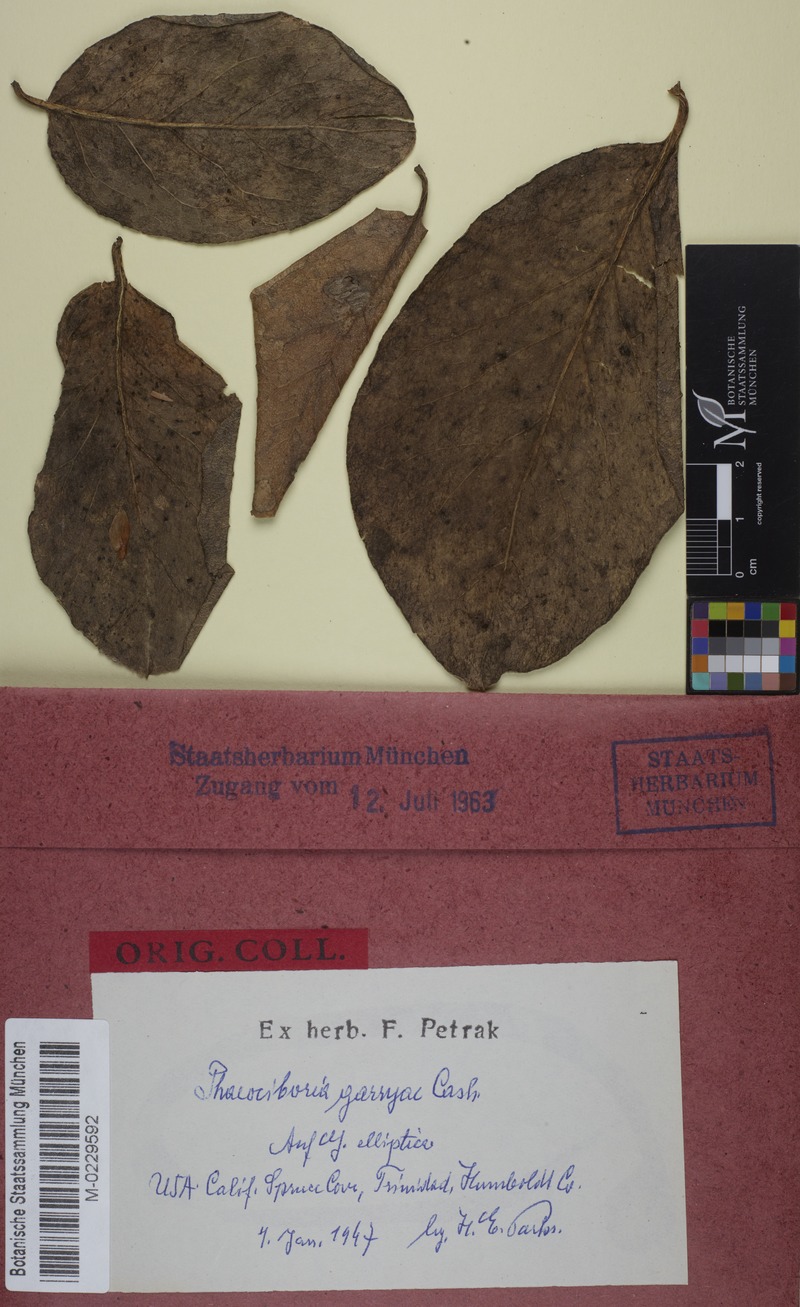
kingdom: Fungi
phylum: Ascomycota
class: Leotiomycetes
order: Helotiales
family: Rutstroemiaceae
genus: Lambertella
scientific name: Lambertella garryae
